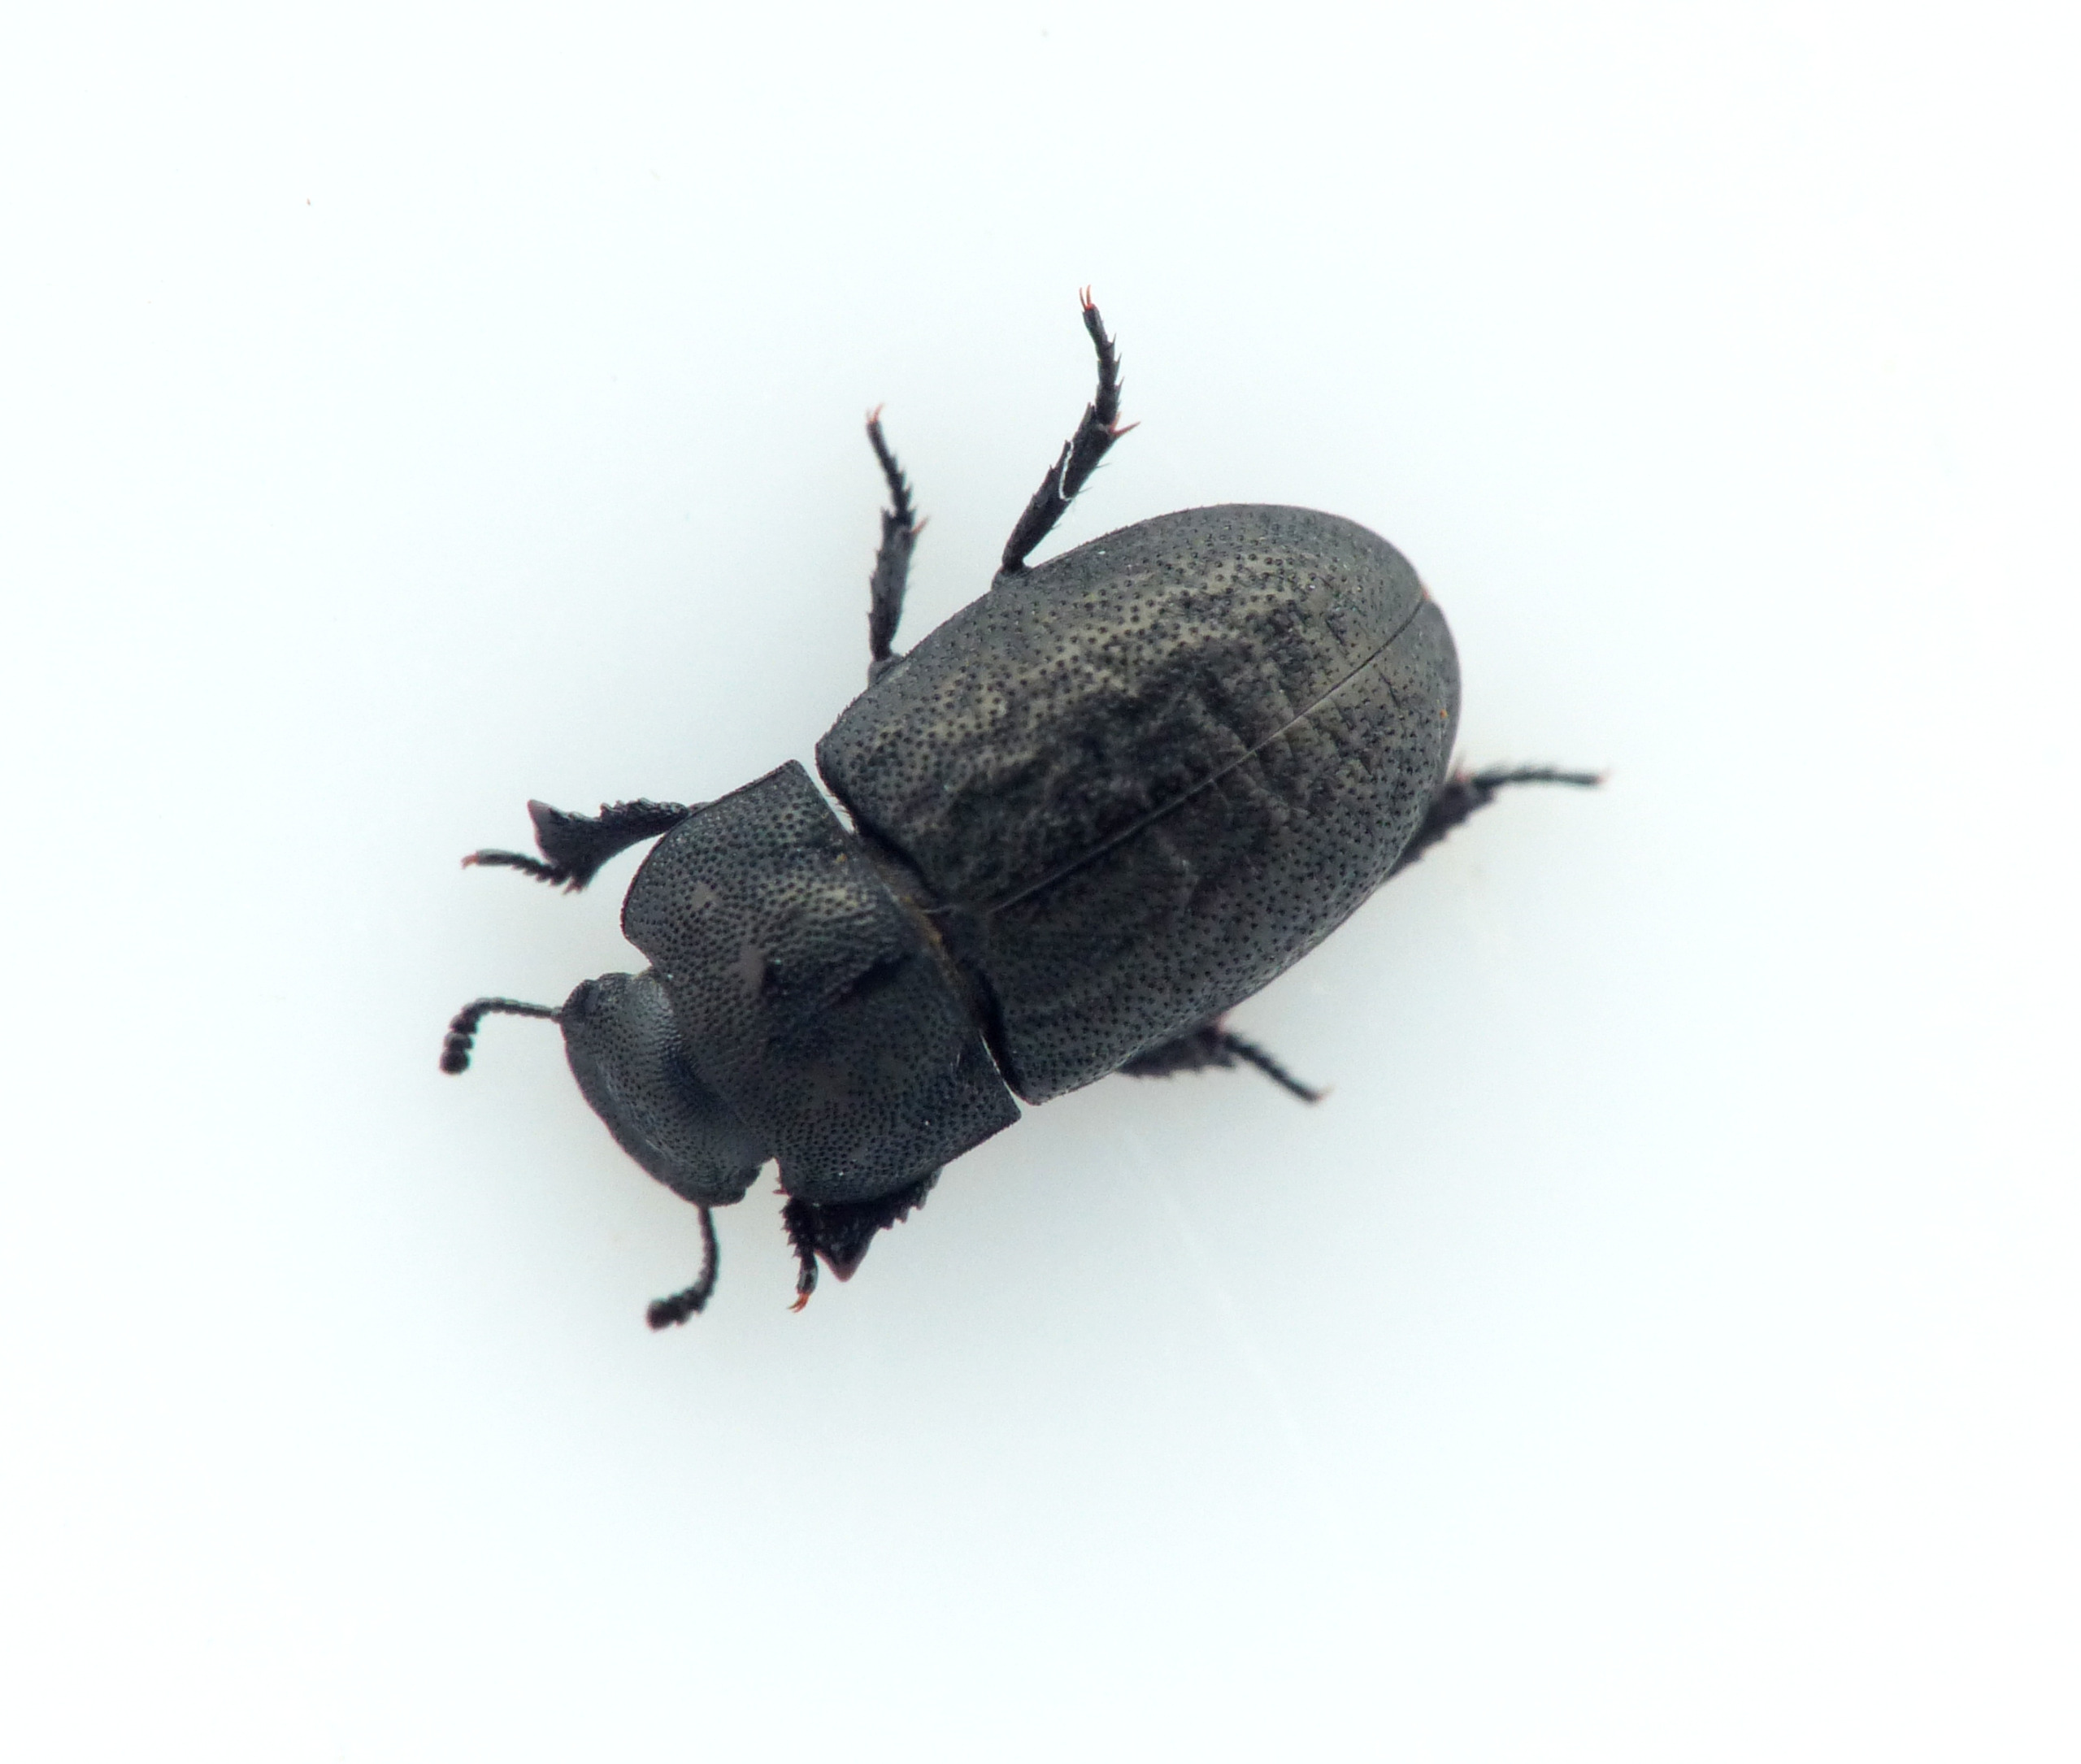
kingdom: Animalia
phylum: Arthropoda
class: Insecta
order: Coleoptera
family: Tenebrionidae
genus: Melanimon
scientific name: Melanimon tibialis
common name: Lille klitskyggebille
